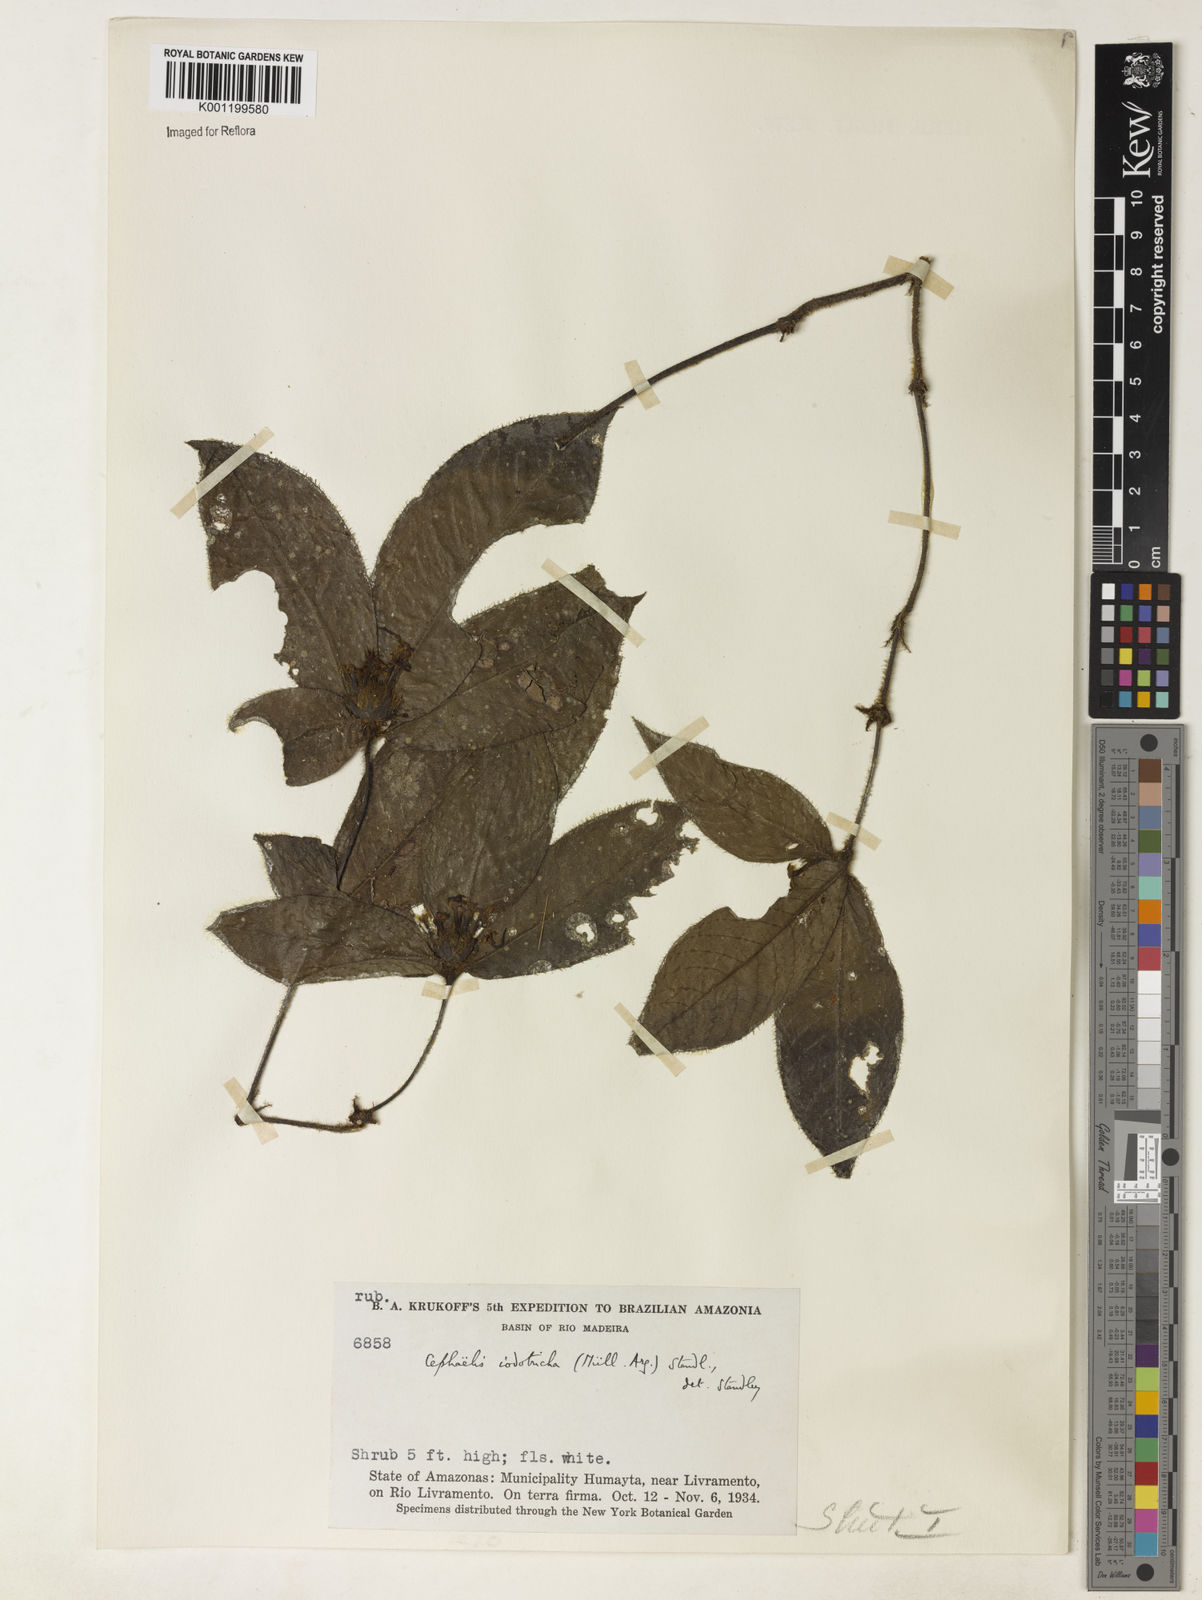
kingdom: Plantae
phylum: Tracheophyta
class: Magnoliopsida
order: Gentianales
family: Rubiaceae
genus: Psychotria
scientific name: Psychotria
